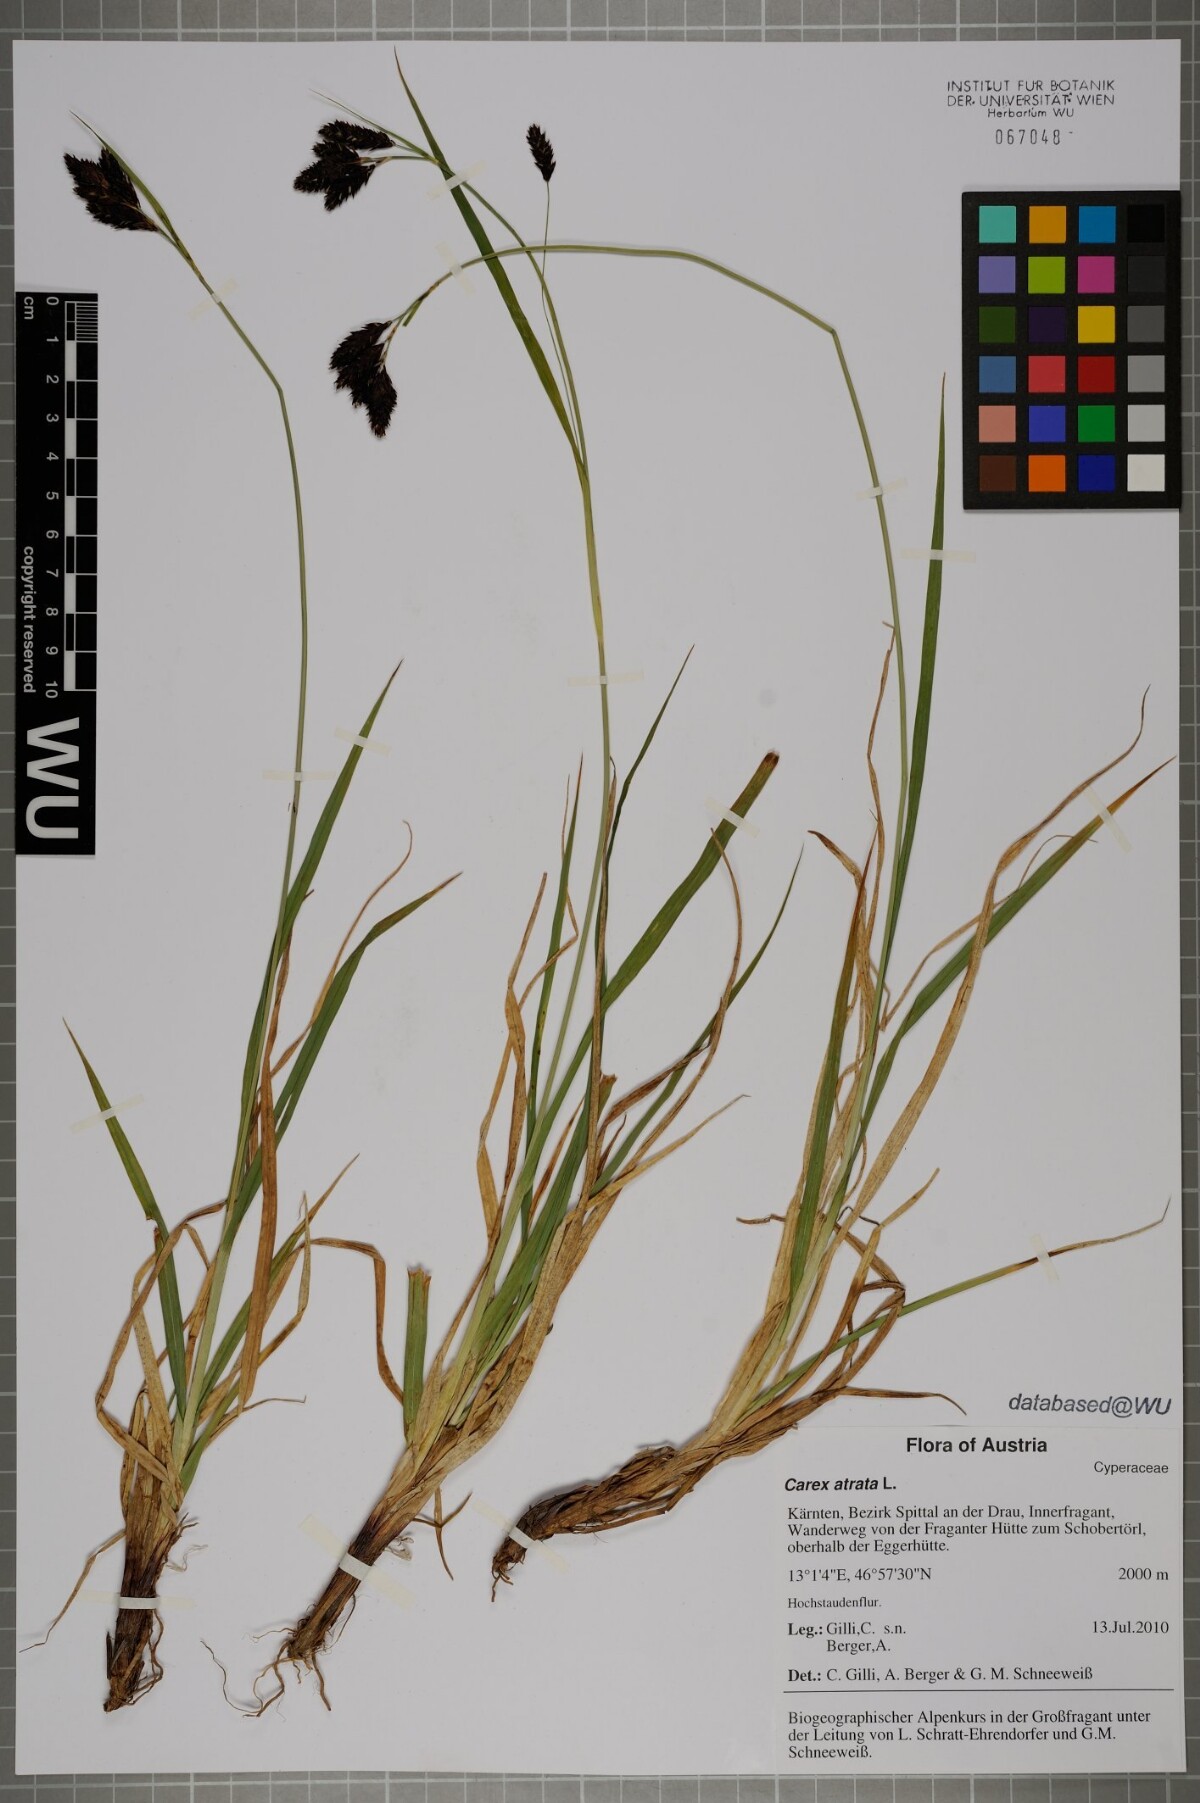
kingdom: Plantae
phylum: Tracheophyta
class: Liliopsida
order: Poales
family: Cyperaceae
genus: Carex
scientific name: Carex atrata
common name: Black alpine sedge
